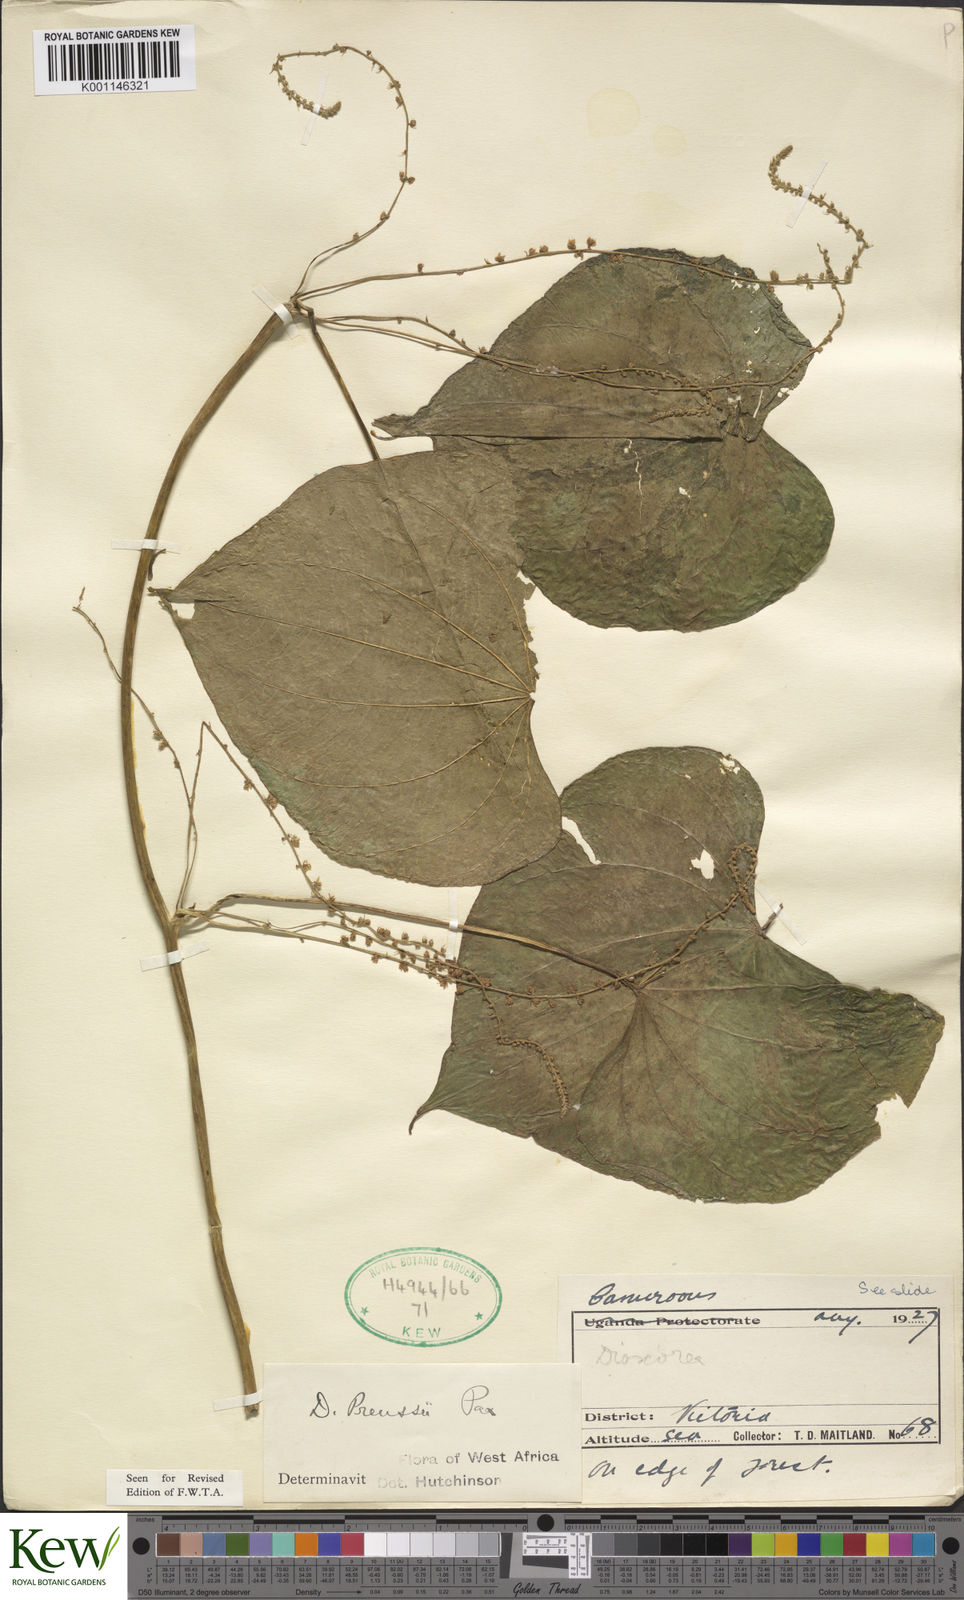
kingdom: Plantae
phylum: Tracheophyta
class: Liliopsida
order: Dioscoreales
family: Dioscoreaceae
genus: Dioscorea
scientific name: Dioscorea preussii
